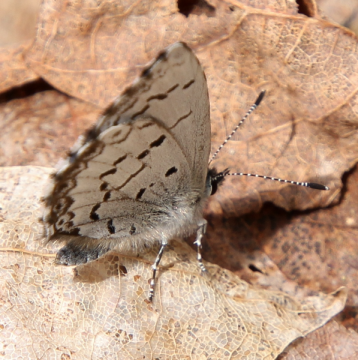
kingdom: Animalia
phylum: Arthropoda
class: Insecta
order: Lepidoptera
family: Lycaenidae
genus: Celastrina
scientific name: Celastrina lucia
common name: Northern Spring Azure
